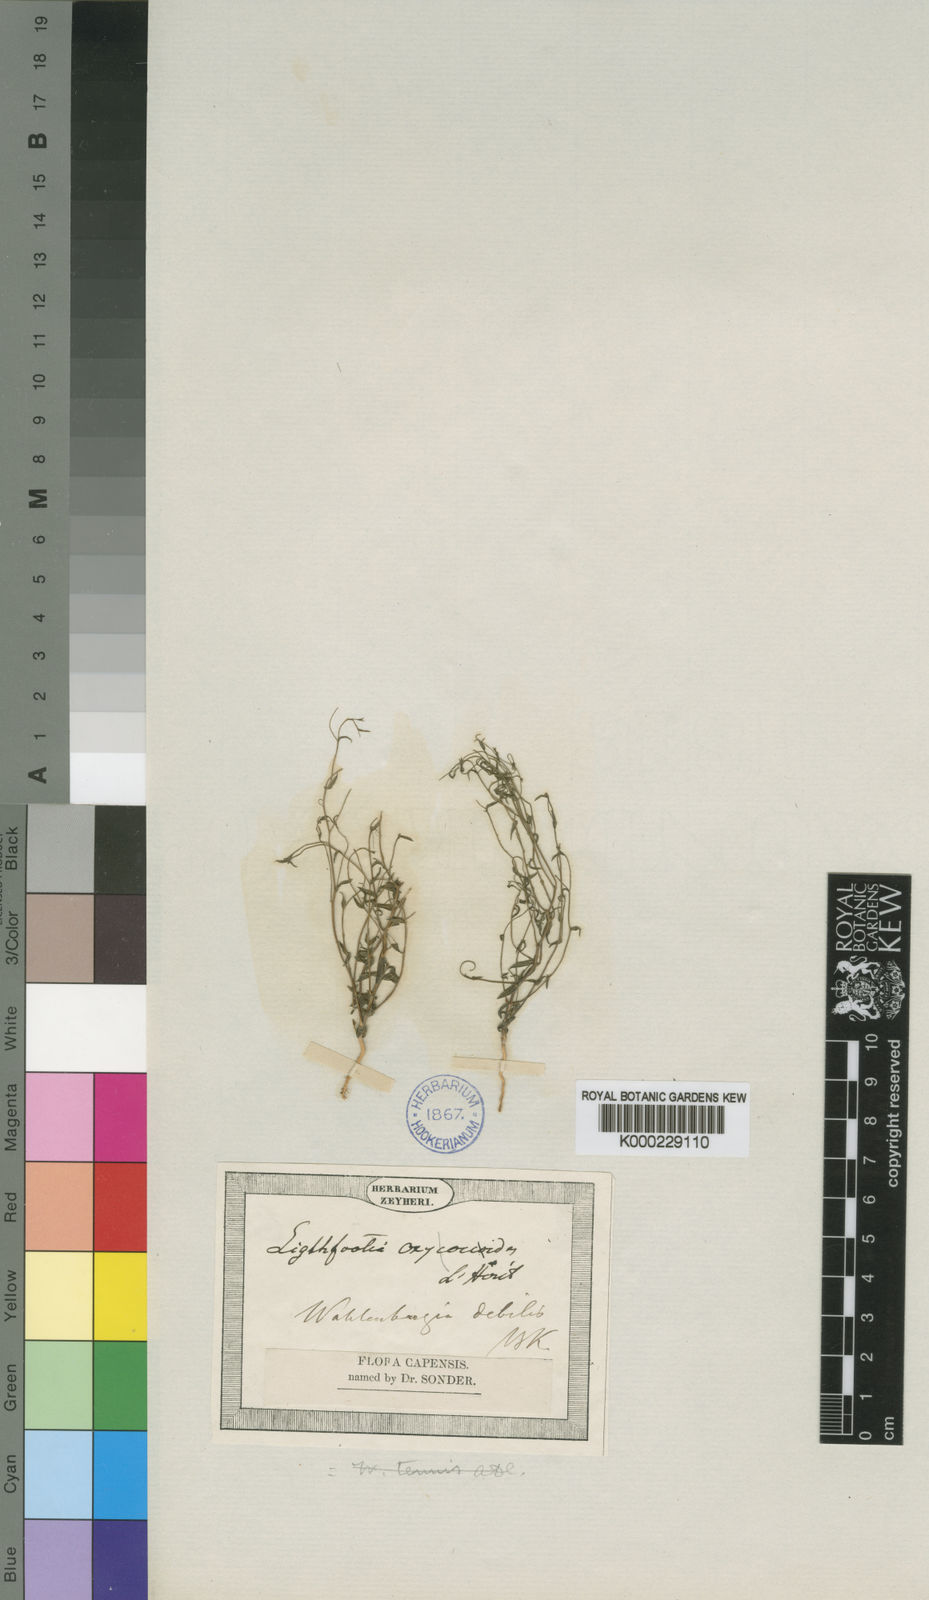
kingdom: Plantae
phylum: Tracheophyta
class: Magnoliopsida
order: Asterales
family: Campanulaceae
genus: Wahlenbergia
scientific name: Wahlenbergia debilis
